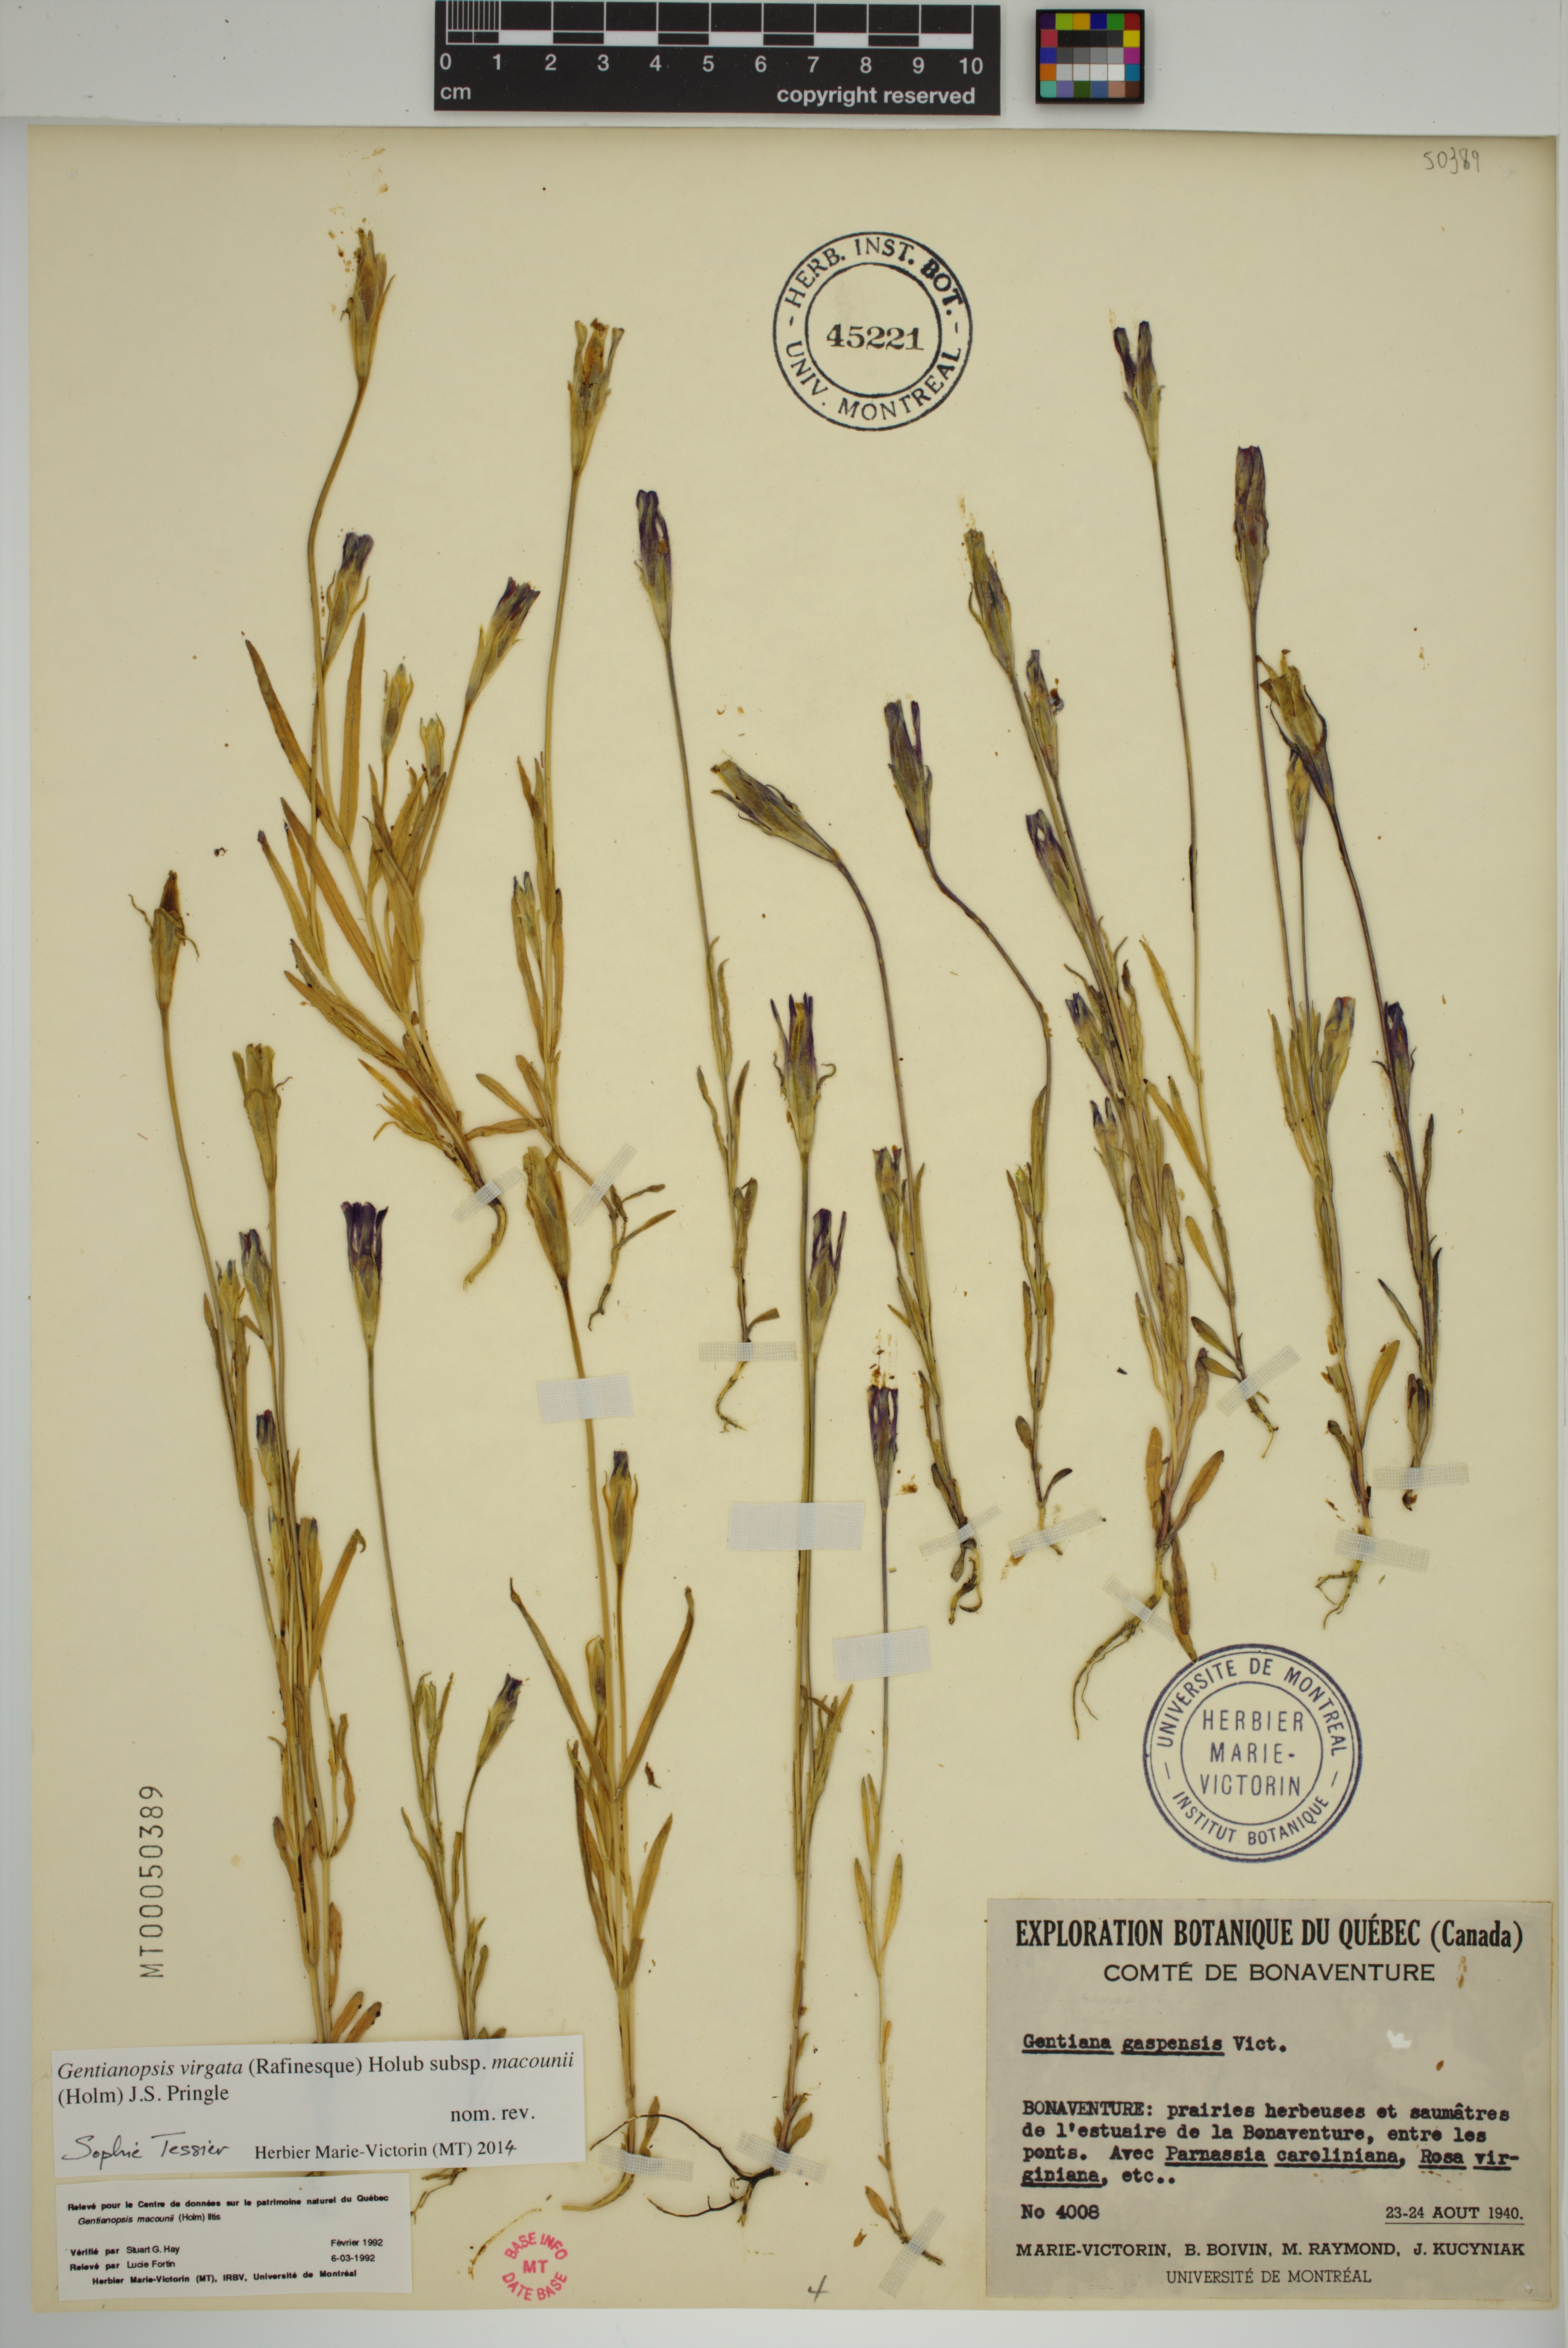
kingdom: Plantae
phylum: Tracheophyta
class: Magnoliopsida
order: Gentianales
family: Gentianaceae
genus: Gentianopsis
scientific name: Gentianopsis macounii
